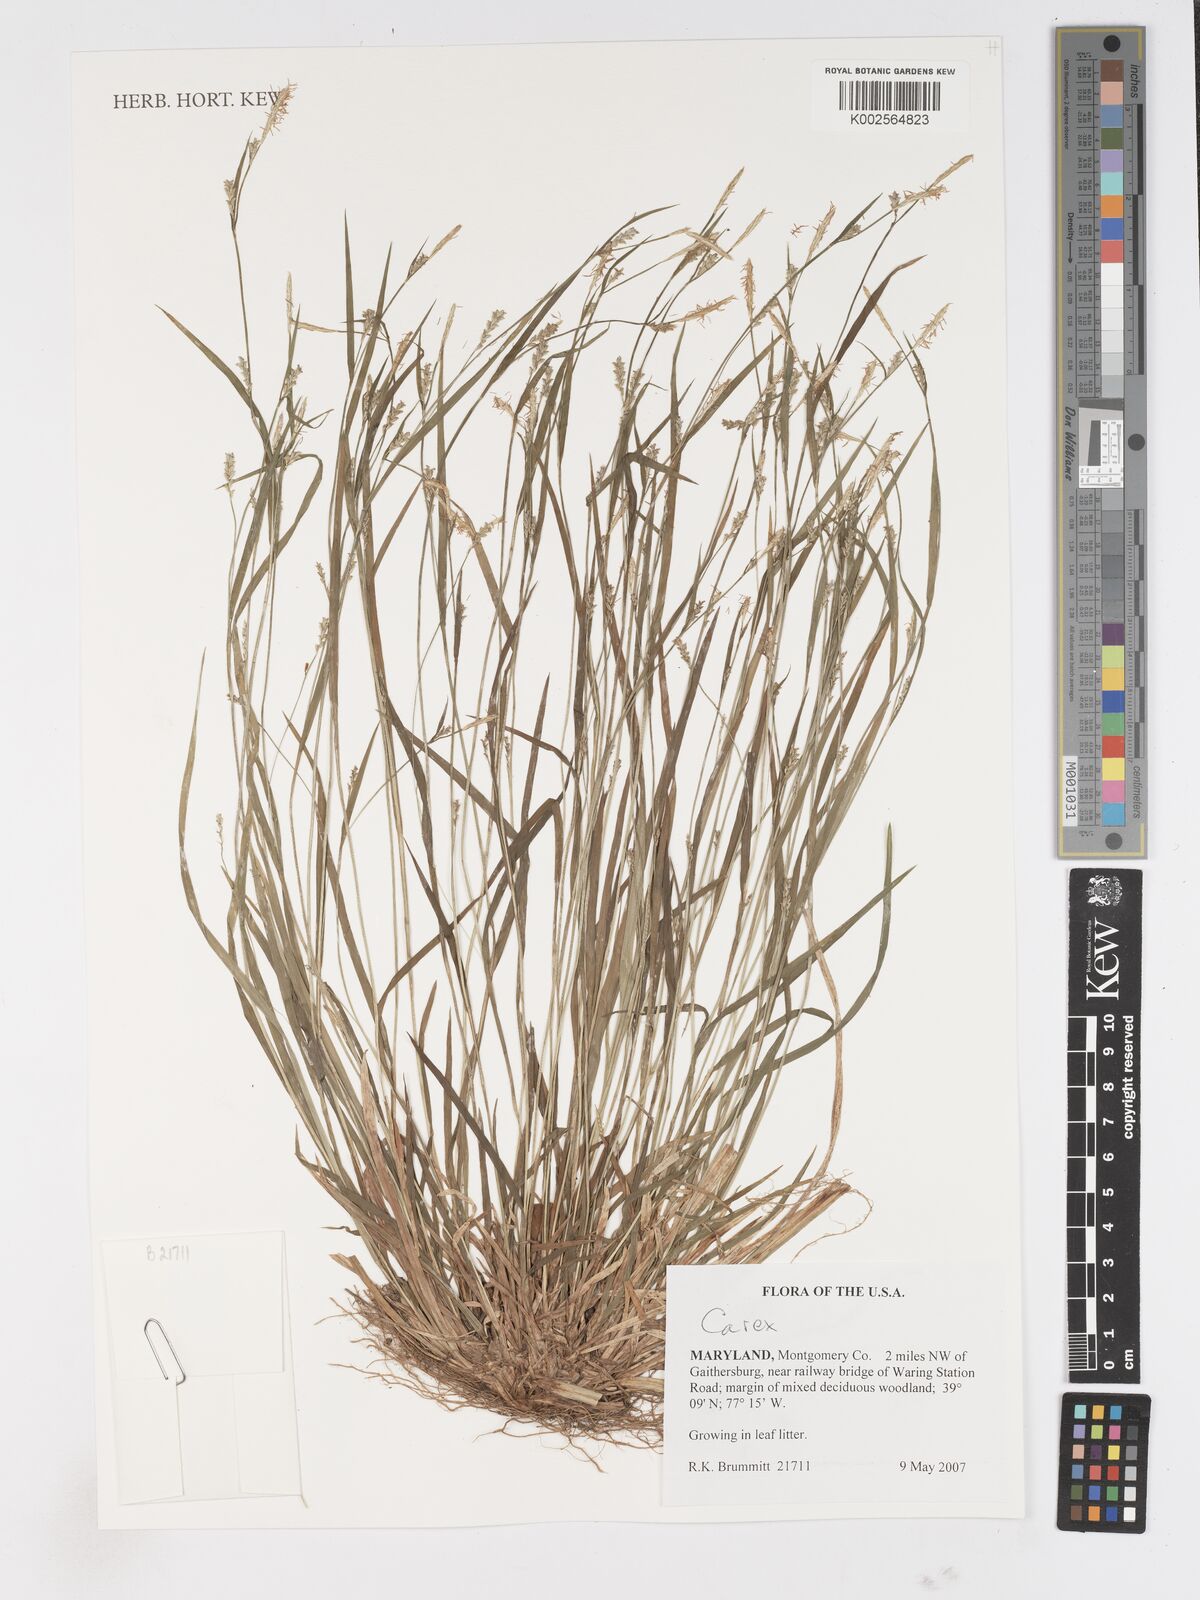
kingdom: Plantae
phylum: Tracheophyta
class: Liliopsida
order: Poales
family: Cyperaceae
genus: Carex
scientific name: Carex
